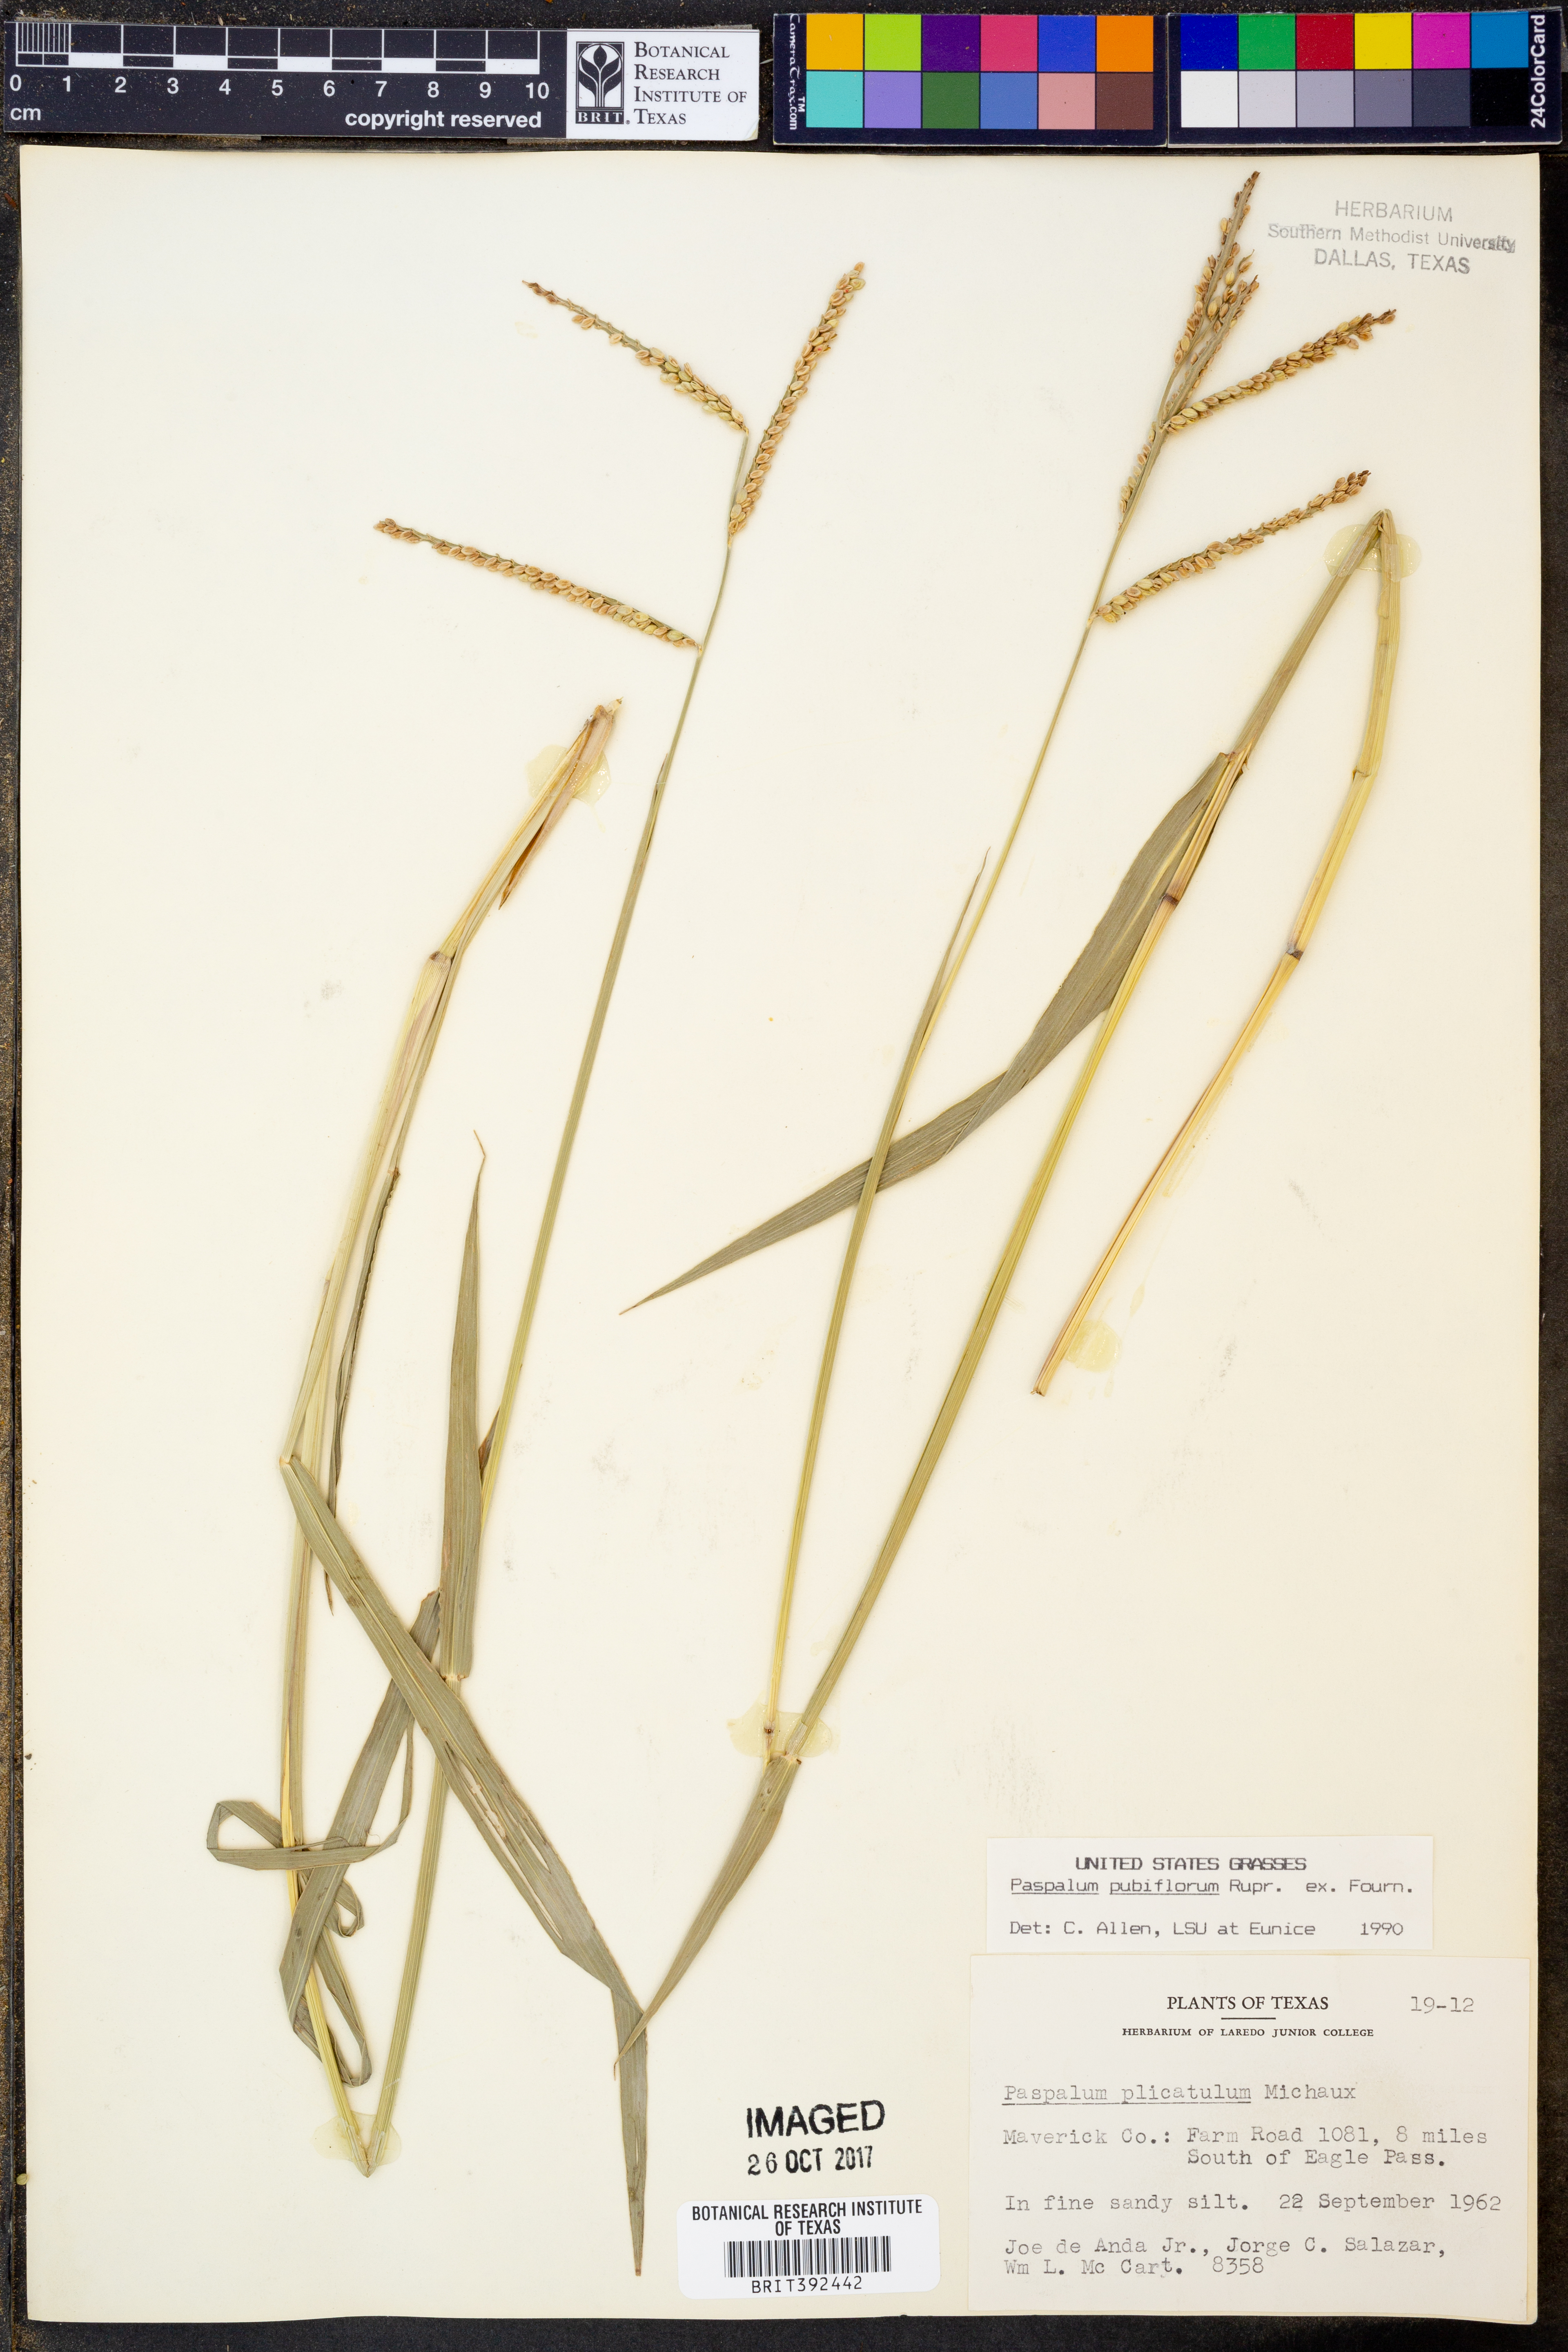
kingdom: Plantae
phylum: Tracheophyta
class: Liliopsida
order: Poales
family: Poaceae
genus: Paspalum
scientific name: Paspalum pubiflorum
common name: Hairy-seed paspalum
